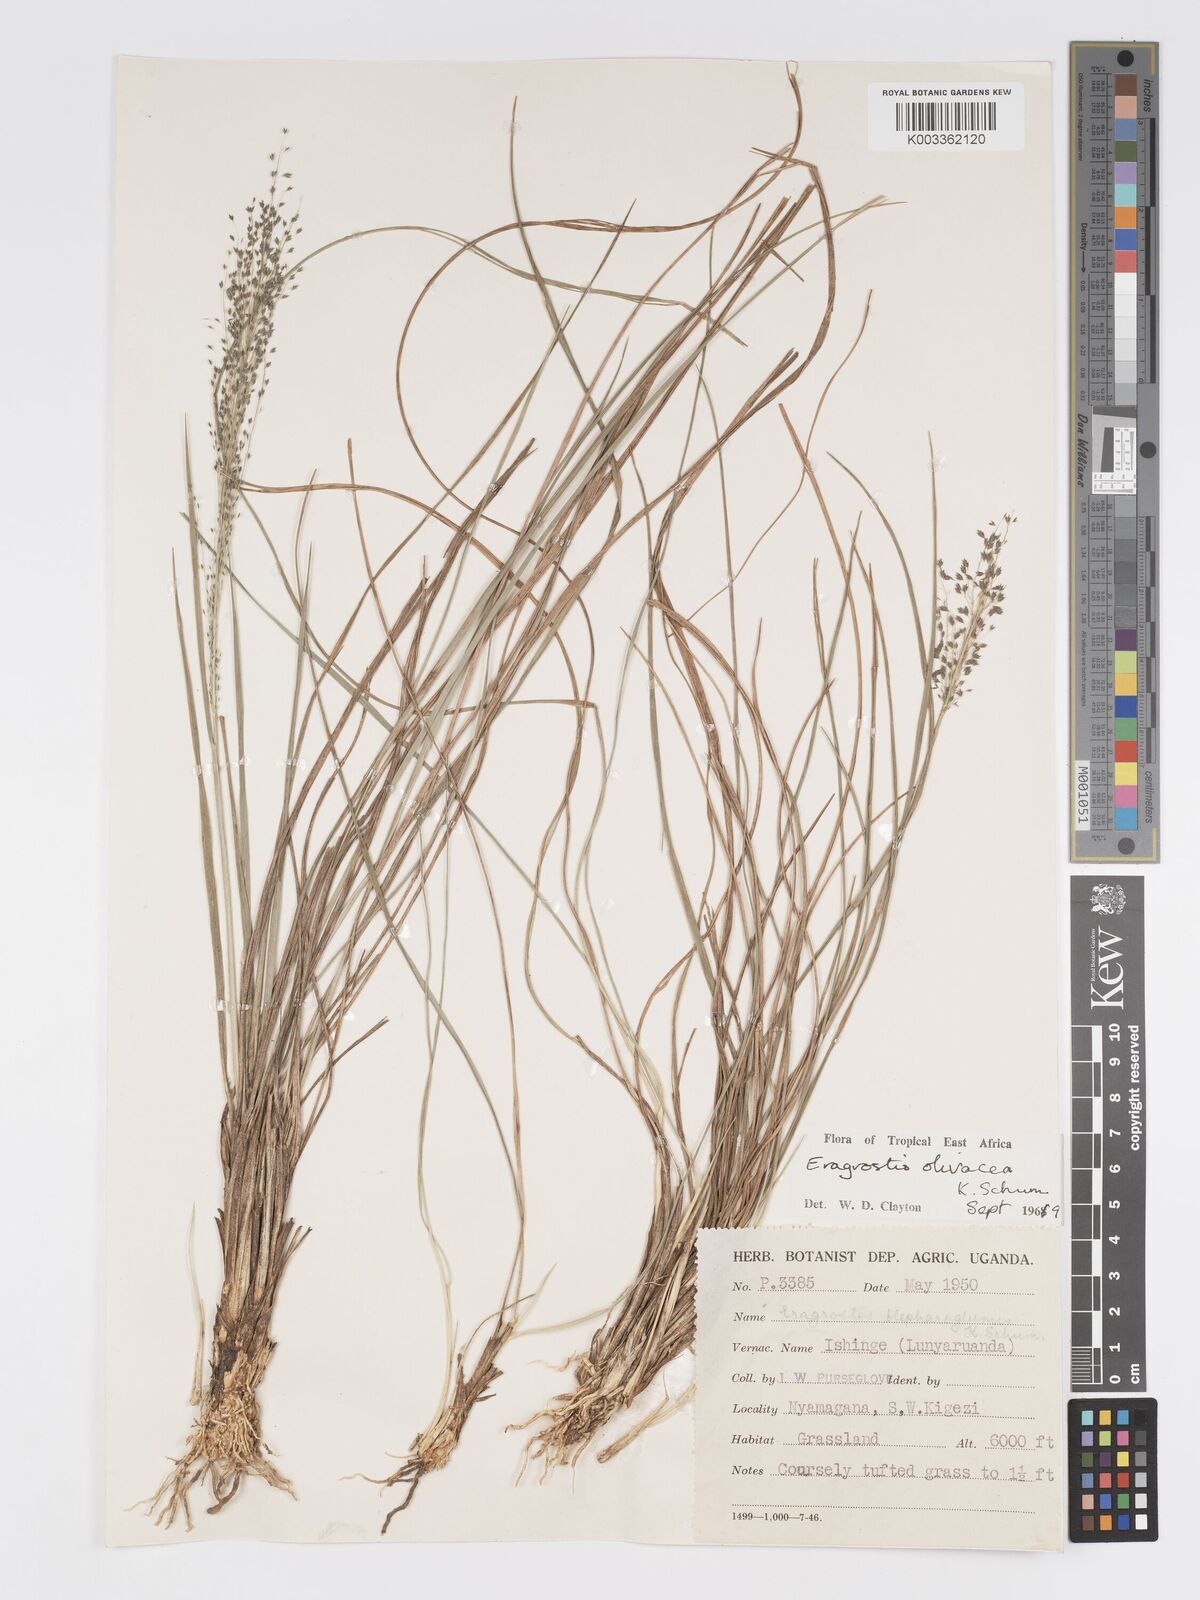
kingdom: Plantae
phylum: Tracheophyta
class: Liliopsida
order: Poales
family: Poaceae
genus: Eragrostis
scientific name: Eragrostis olivacea
